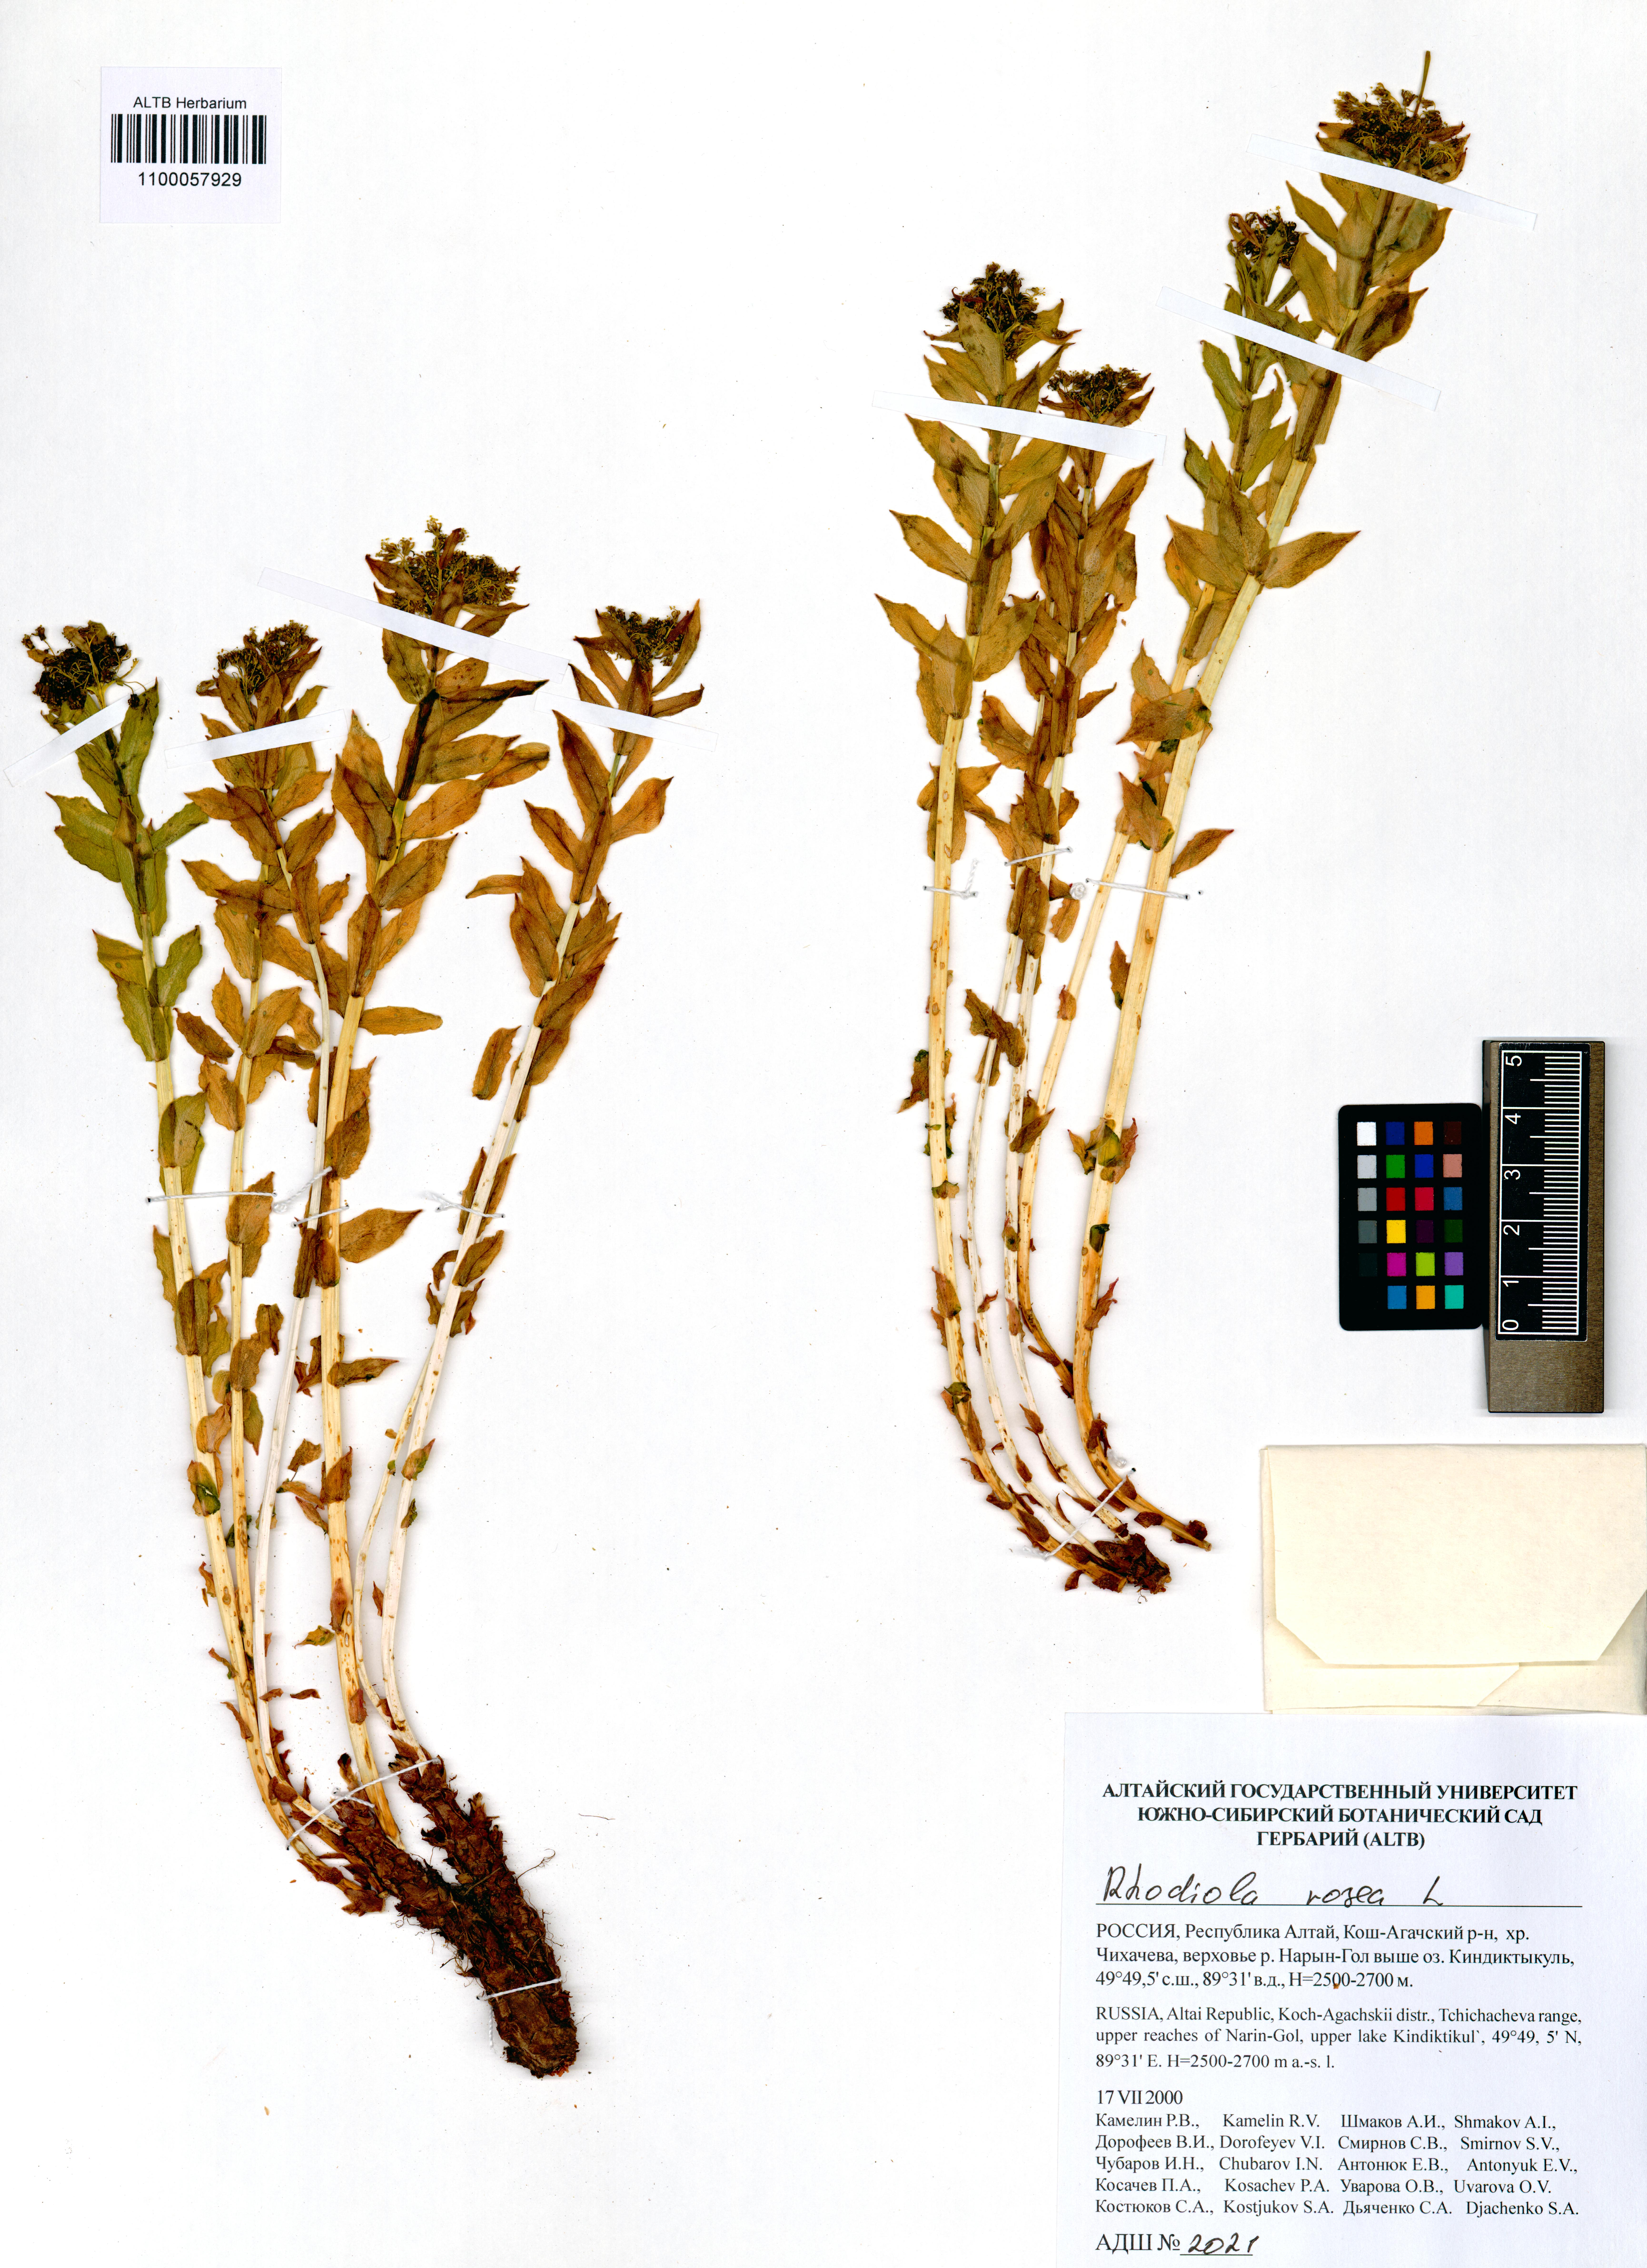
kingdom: Plantae
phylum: Tracheophyta
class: Magnoliopsida
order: Saxifragales
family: Crassulaceae
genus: Rhodiola
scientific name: Rhodiola rosea
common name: Roseroot
